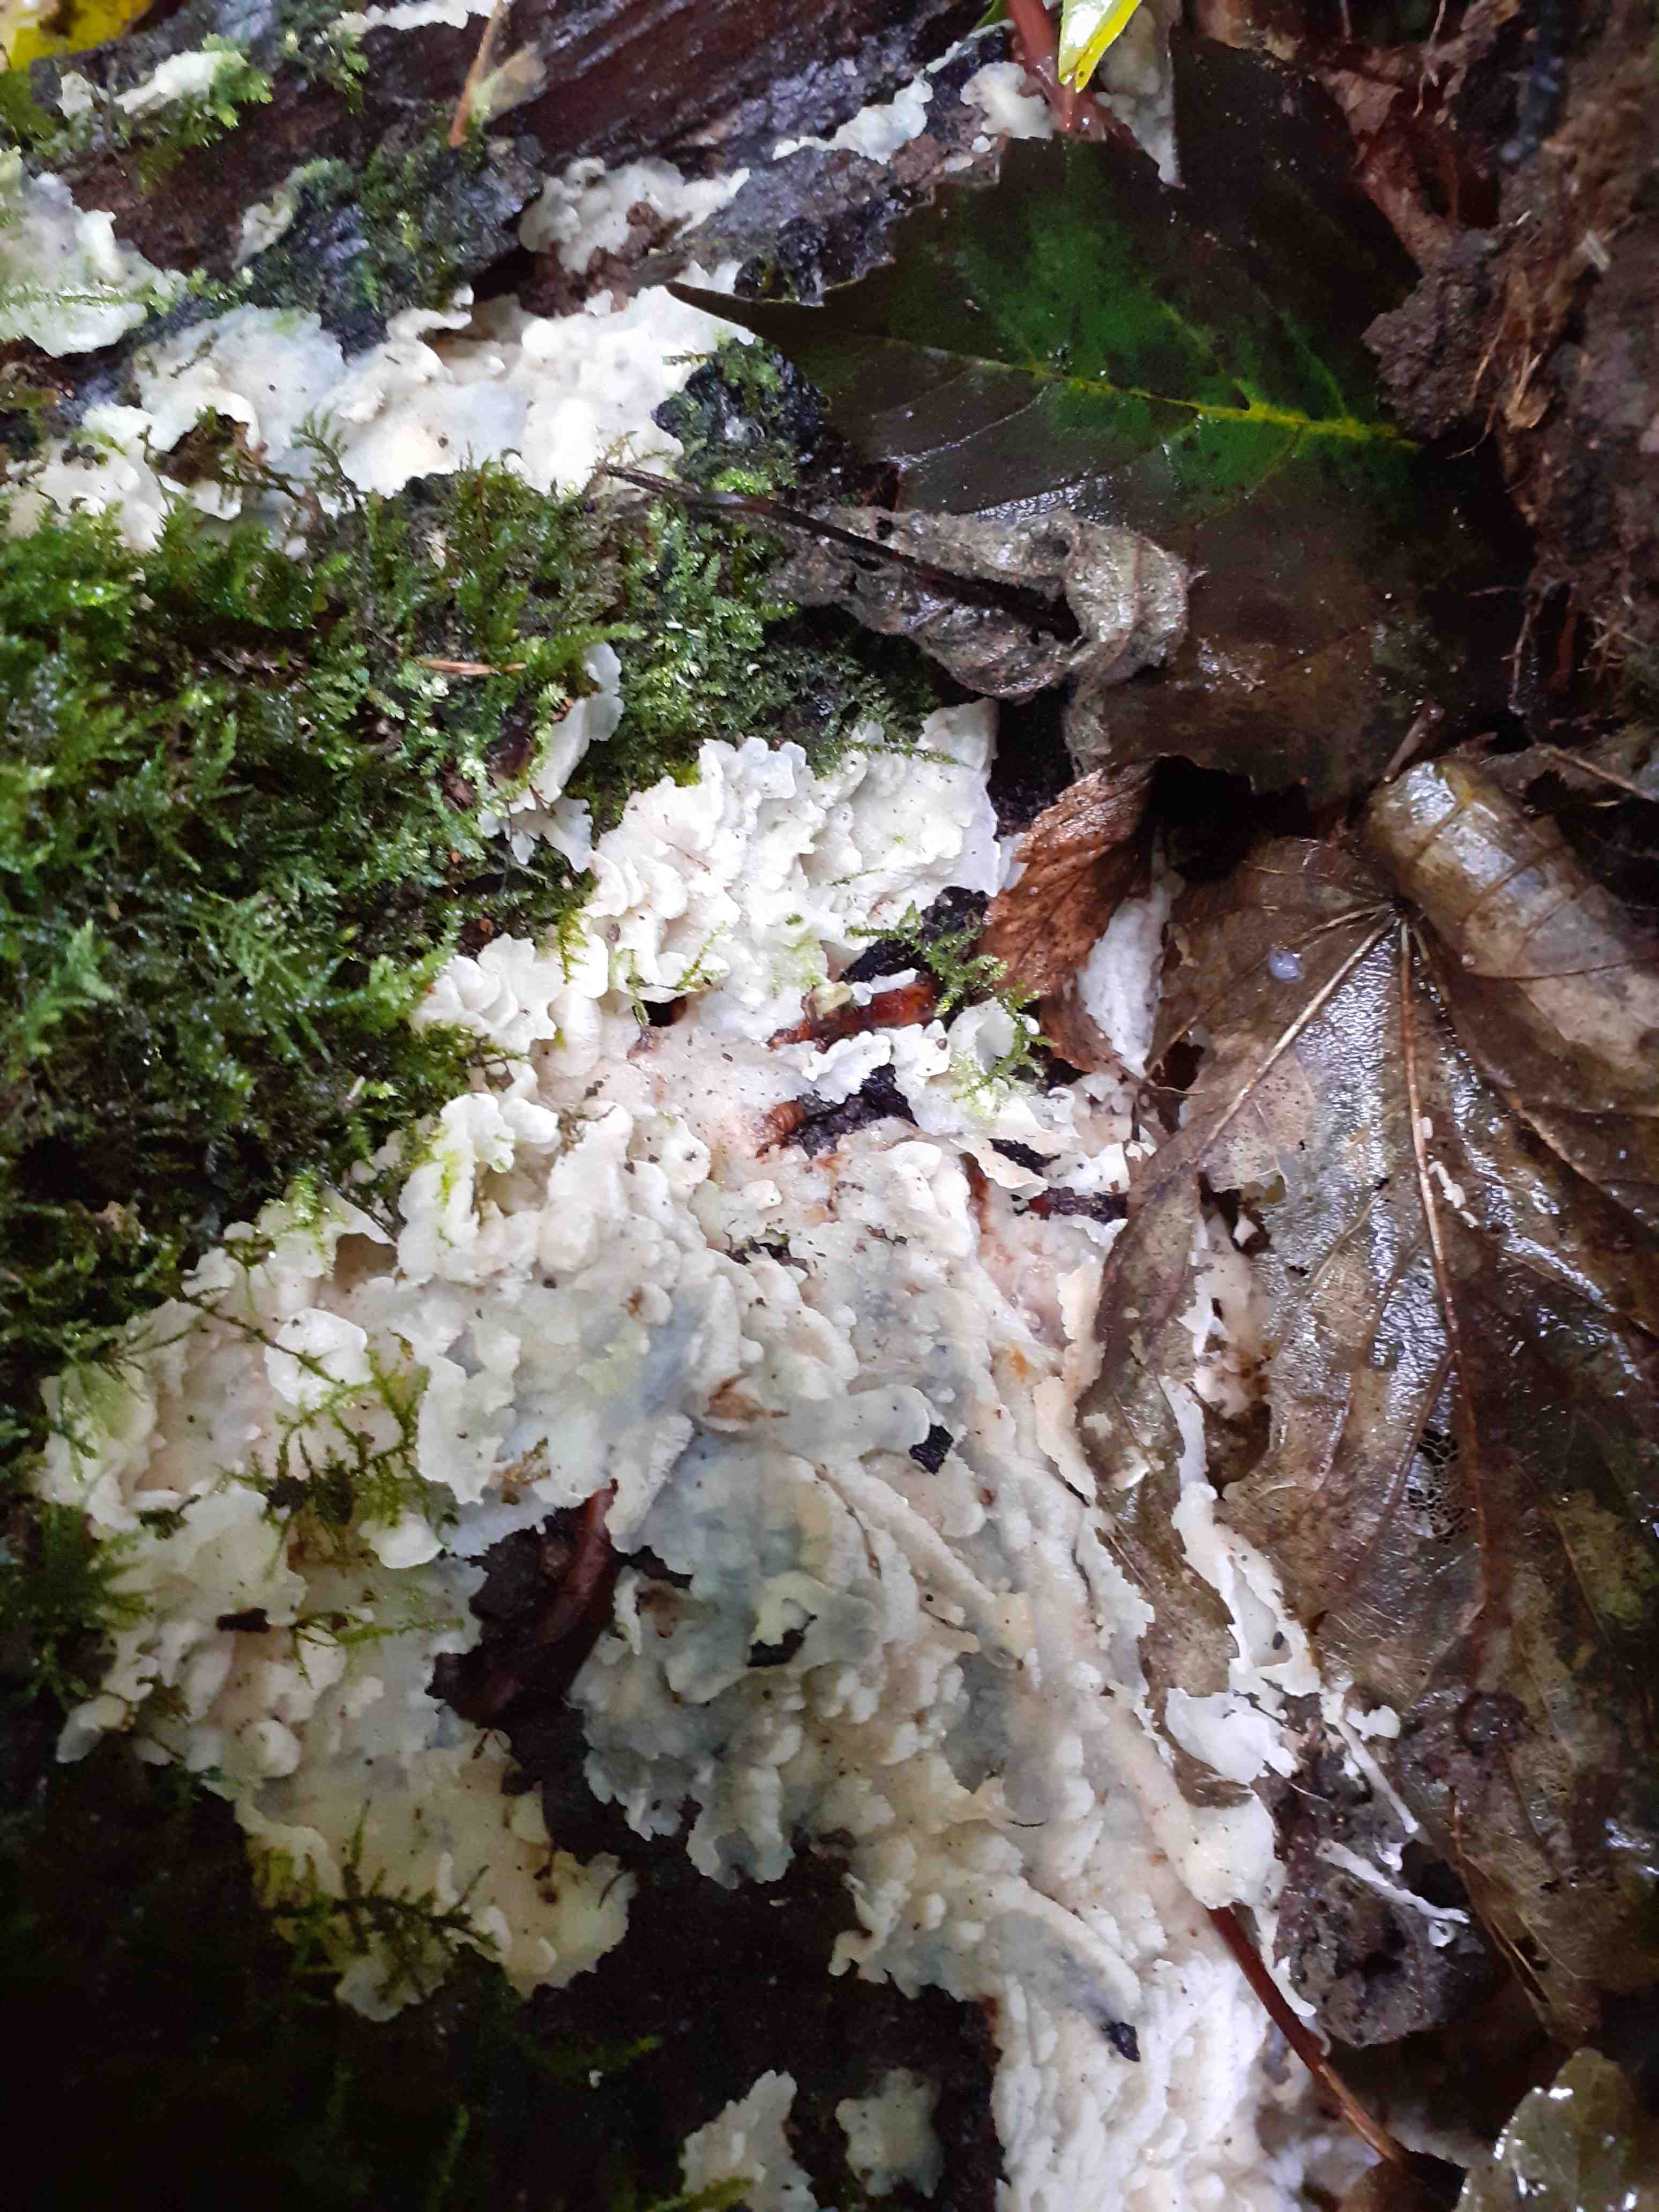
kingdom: Fungi
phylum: Basidiomycota
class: Agaricomycetes
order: Polyporales
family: Meruliaceae
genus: Physisporinus
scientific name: Physisporinus vitreus
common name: mastesvamp
